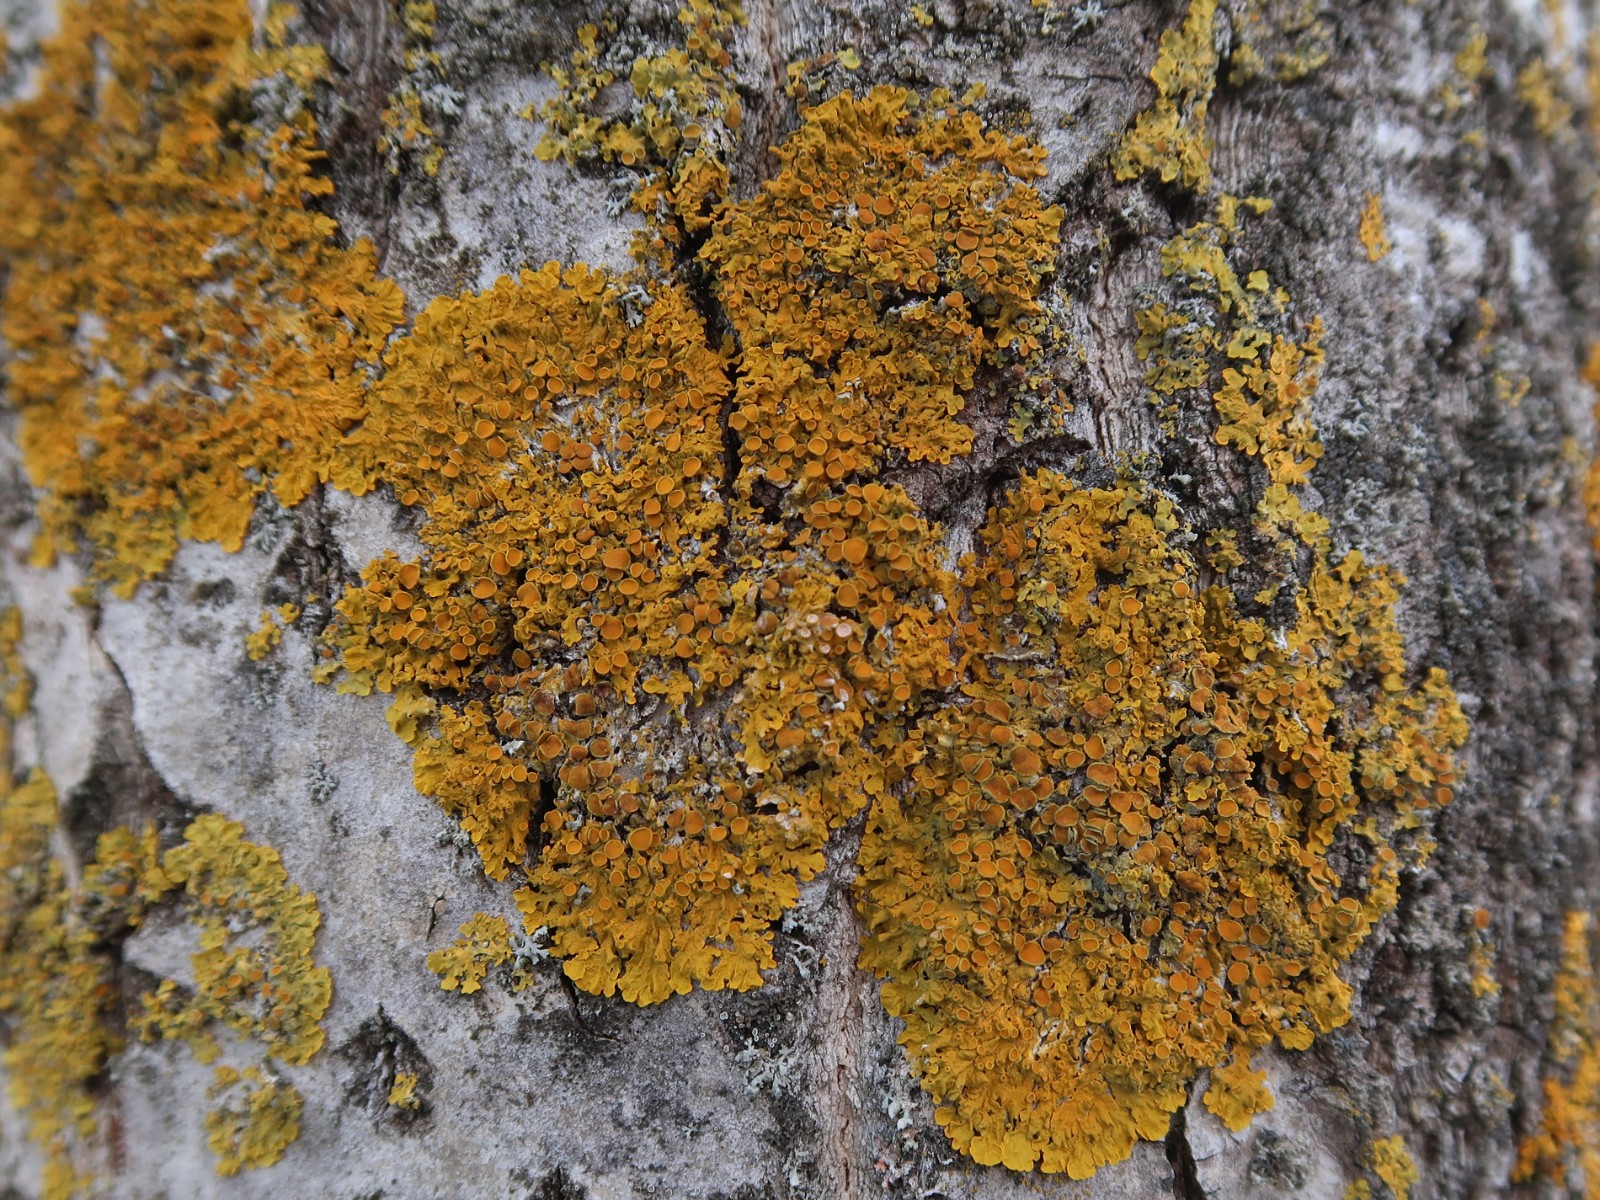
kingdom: Fungi
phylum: Ascomycota
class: Lecanoromycetes
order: Teloschistales
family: Teloschistaceae
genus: Xanthoria
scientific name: Xanthoria parietina
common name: almindelig væggelav
